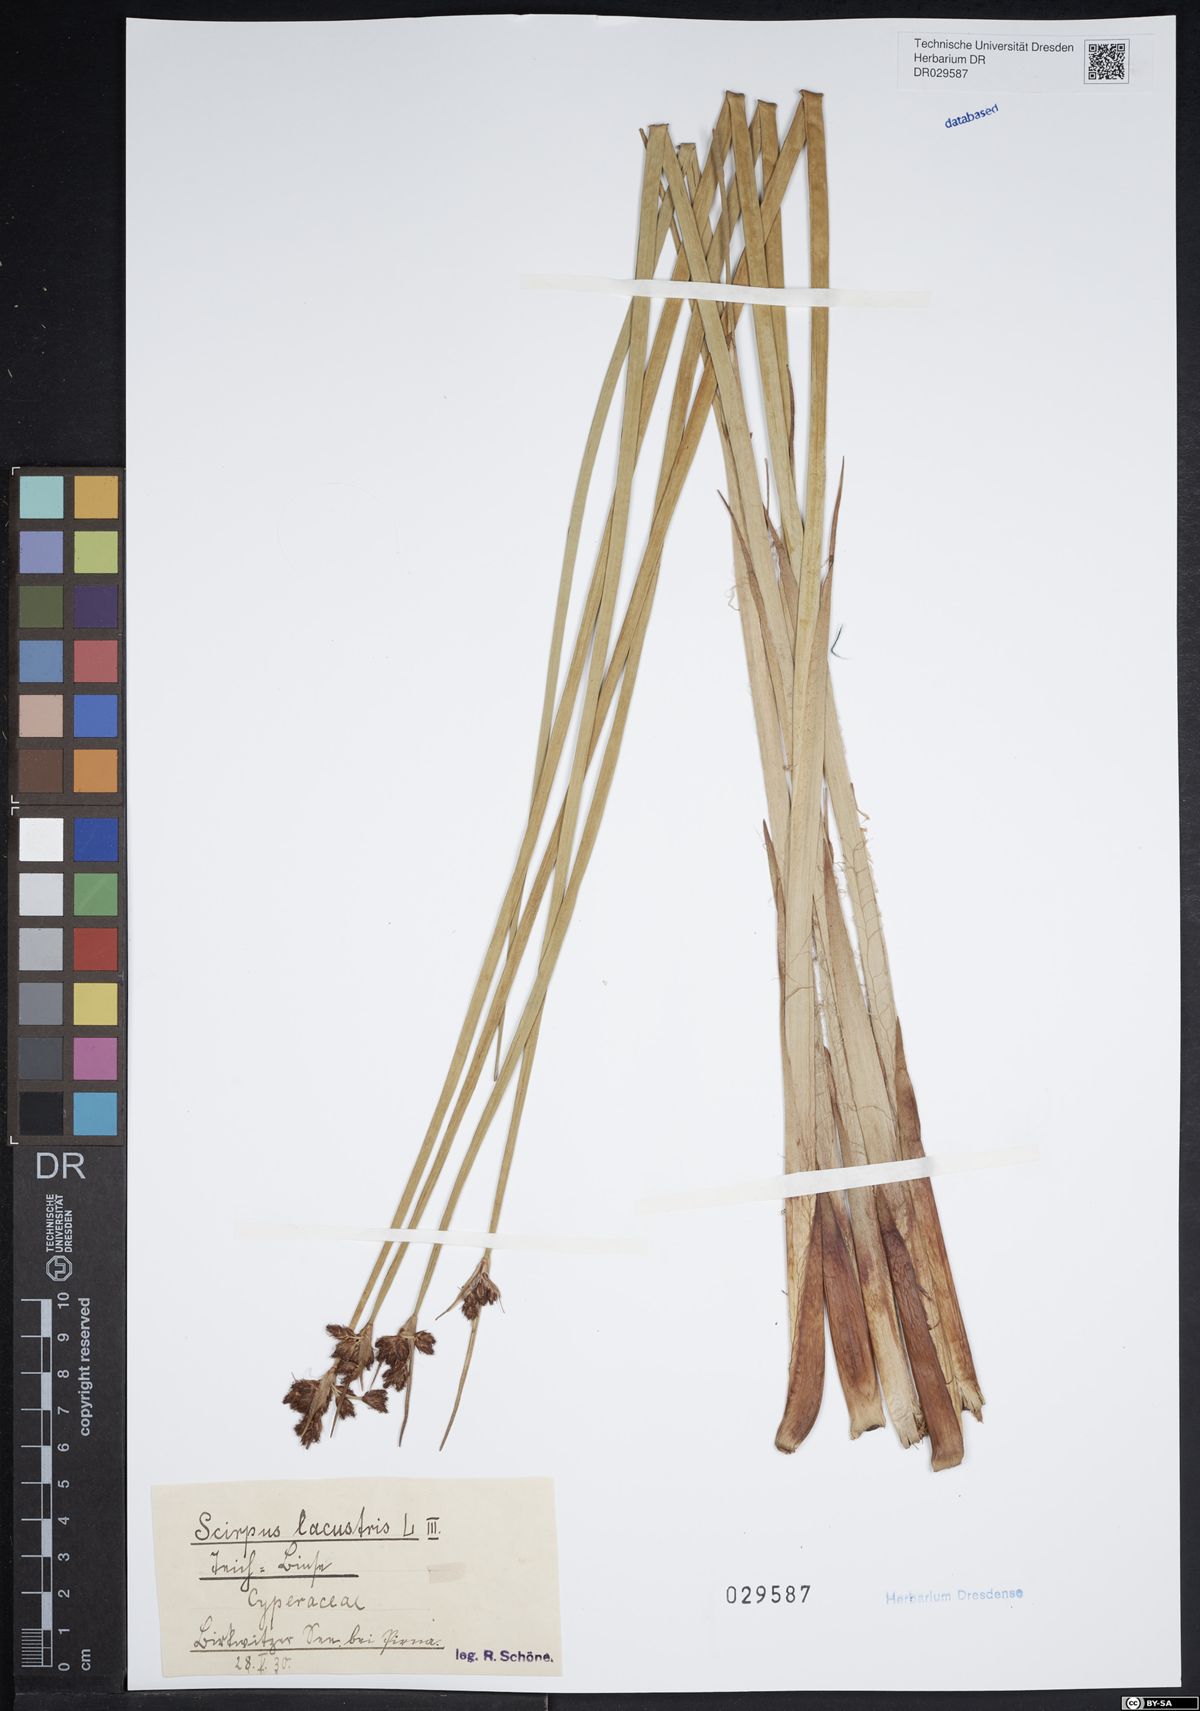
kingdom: Plantae
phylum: Tracheophyta
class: Liliopsida
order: Poales
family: Cyperaceae
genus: Schoenoplectus
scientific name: Schoenoplectus lacustris
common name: Common club-rush
